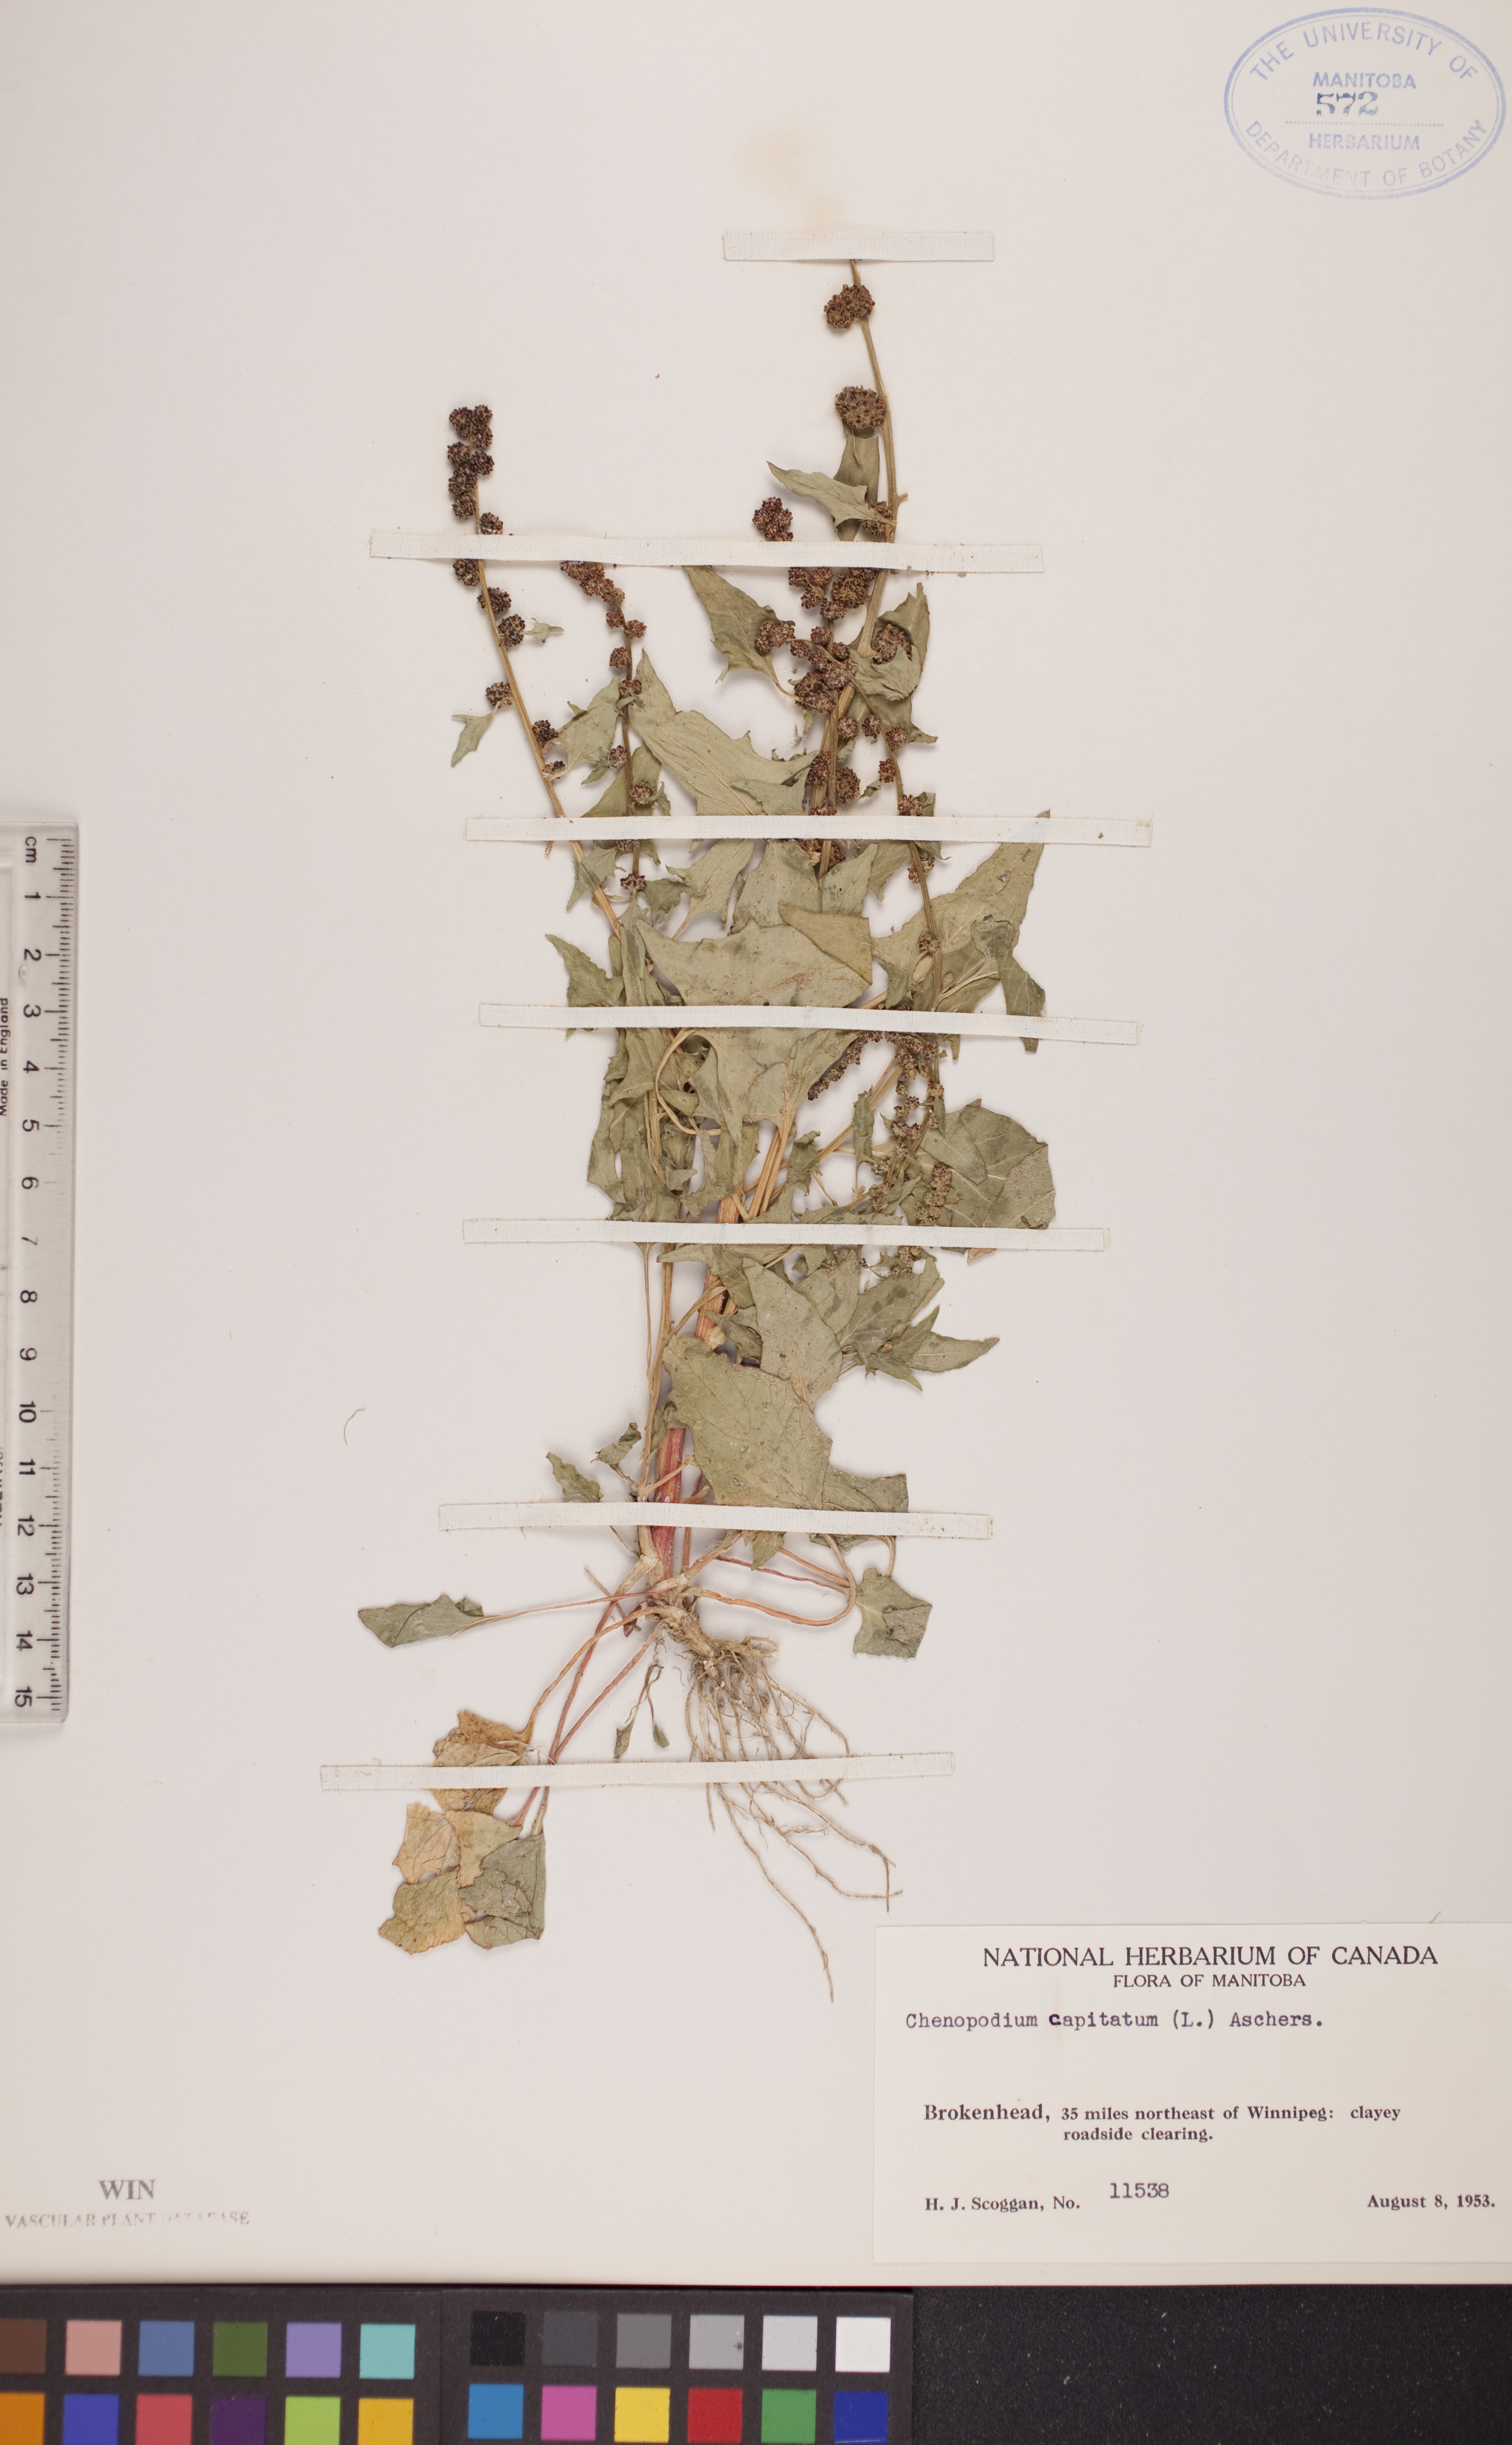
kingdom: Plantae
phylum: Tracheophyta
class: Magnoliopsida
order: Caryophyllales
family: Amaranthaceae
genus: Blitum
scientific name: Blitum capitatum
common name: Strawberry-blight
